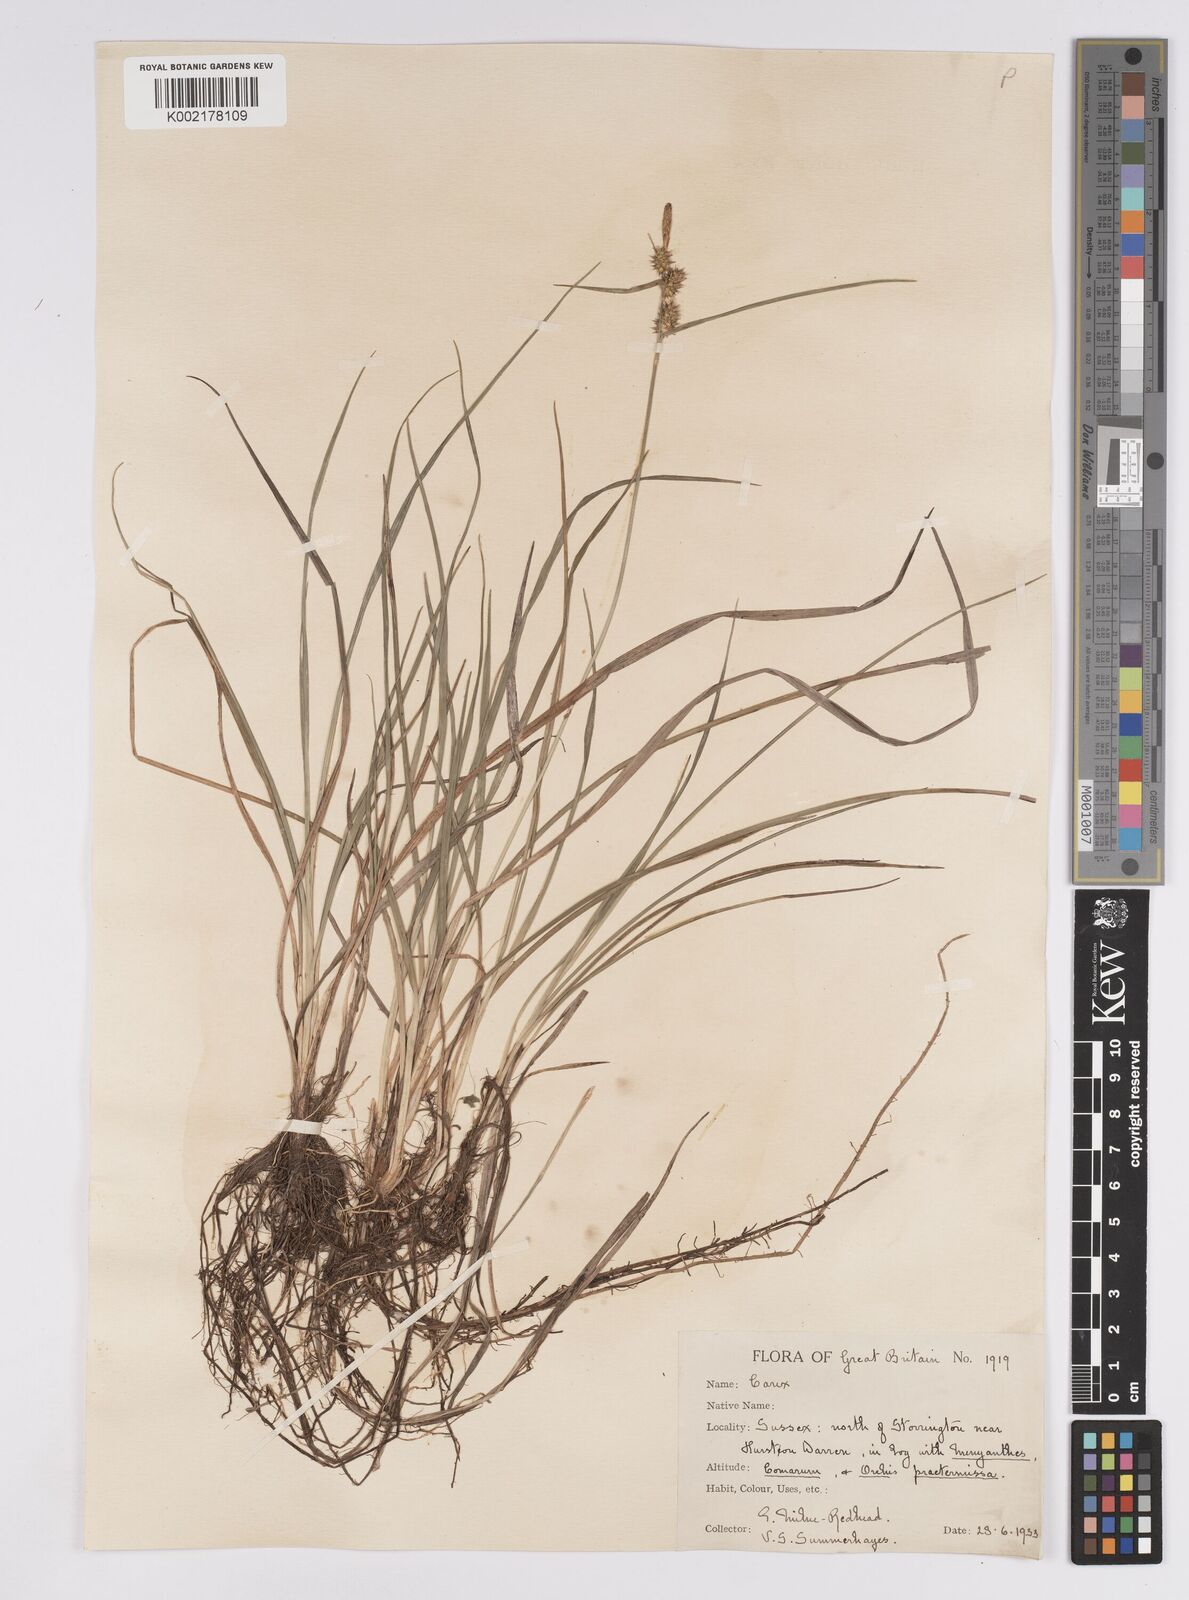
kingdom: Plantae
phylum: Tracheophyta
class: Liliopsida
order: Poales
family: Cyperaceae
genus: Carex
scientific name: Carex demissa
